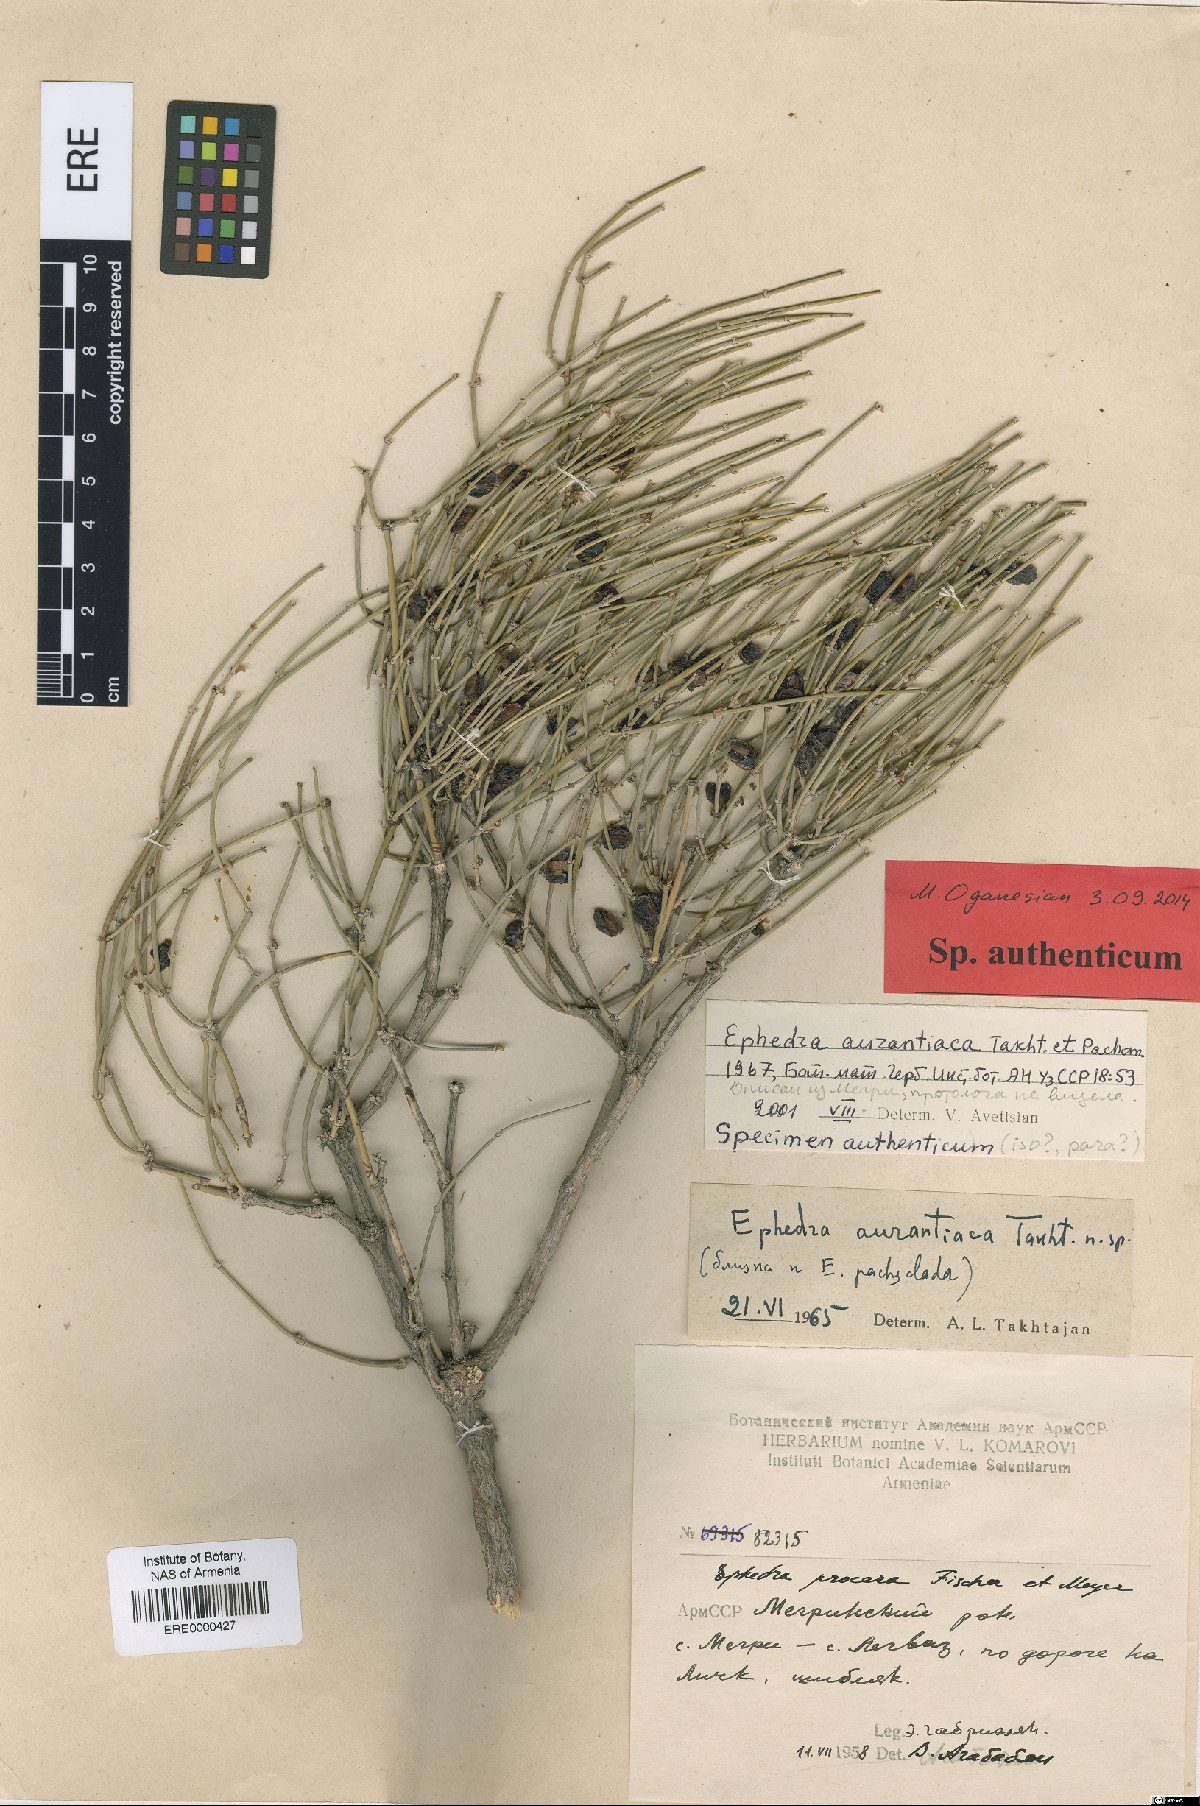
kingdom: Plantae
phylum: Tracheophyta
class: Gnetopsida
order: Ephedrales
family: Ephedraceae
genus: Ephedra
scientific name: Ephedra aurantiaca
